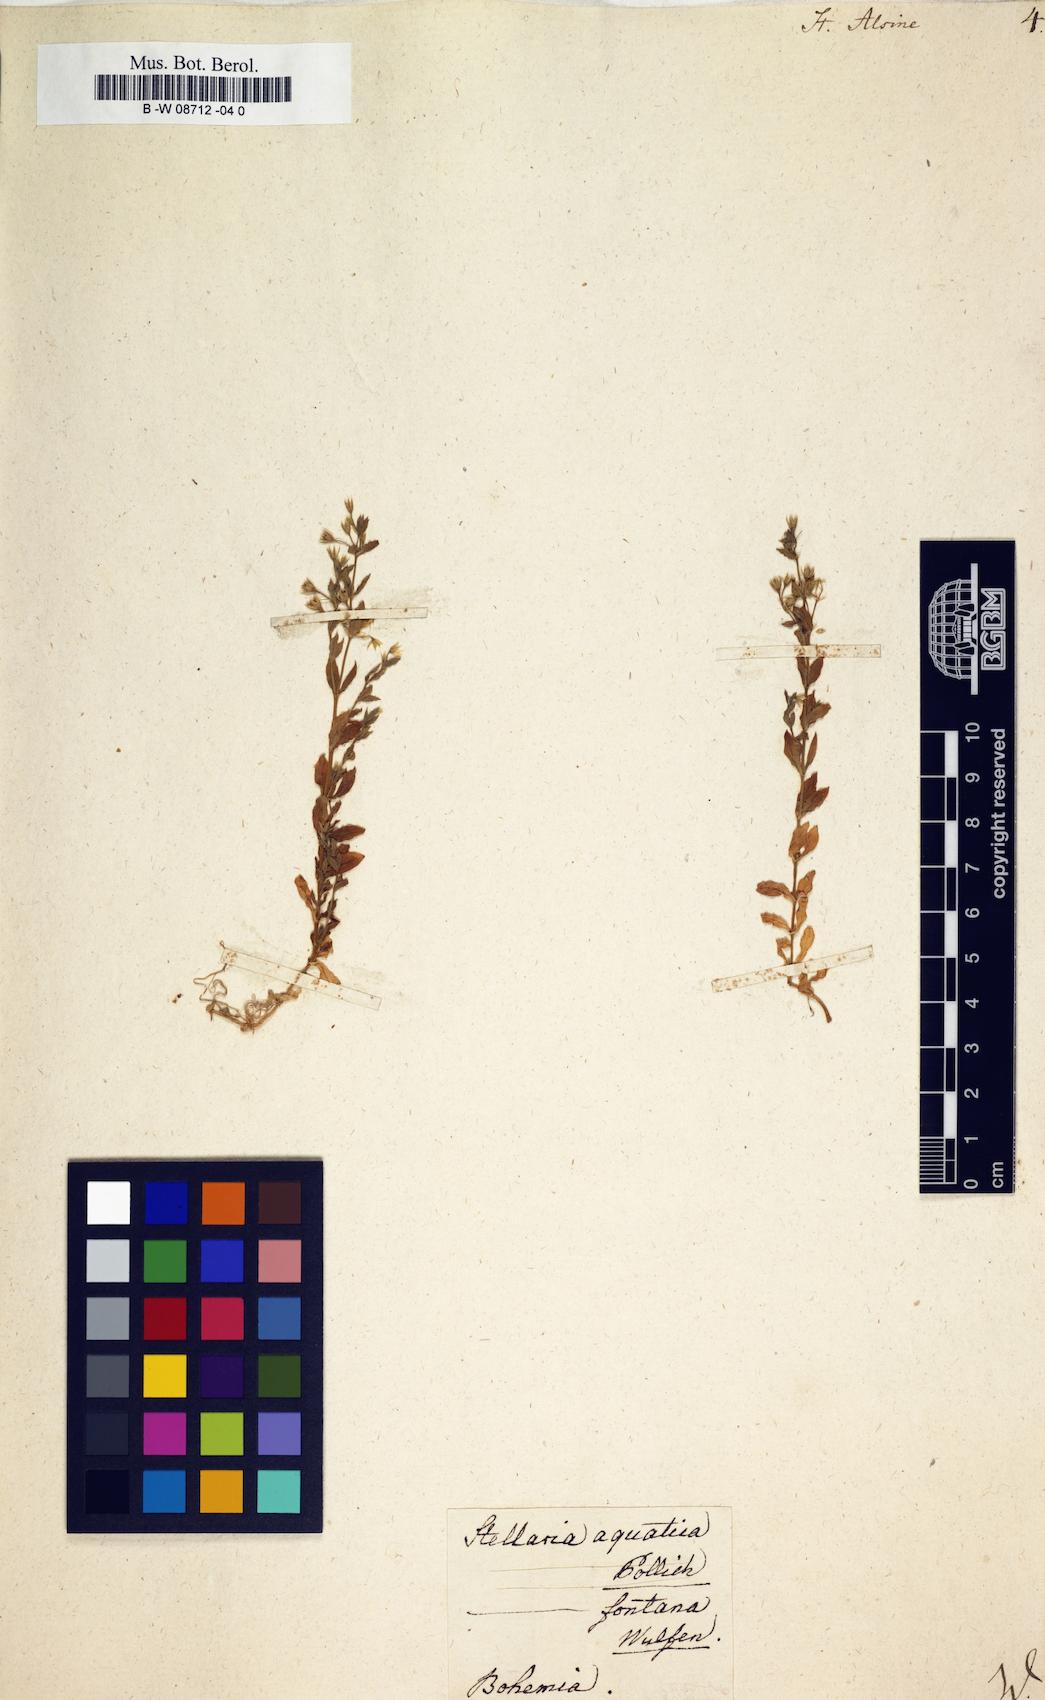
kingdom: Plantae
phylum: Tracheophyta
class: Magnoliopsida
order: Caryophyllales
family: Caryophyllaceae
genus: Stellaria
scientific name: Stellaria alsine
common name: Bog stitchwort
